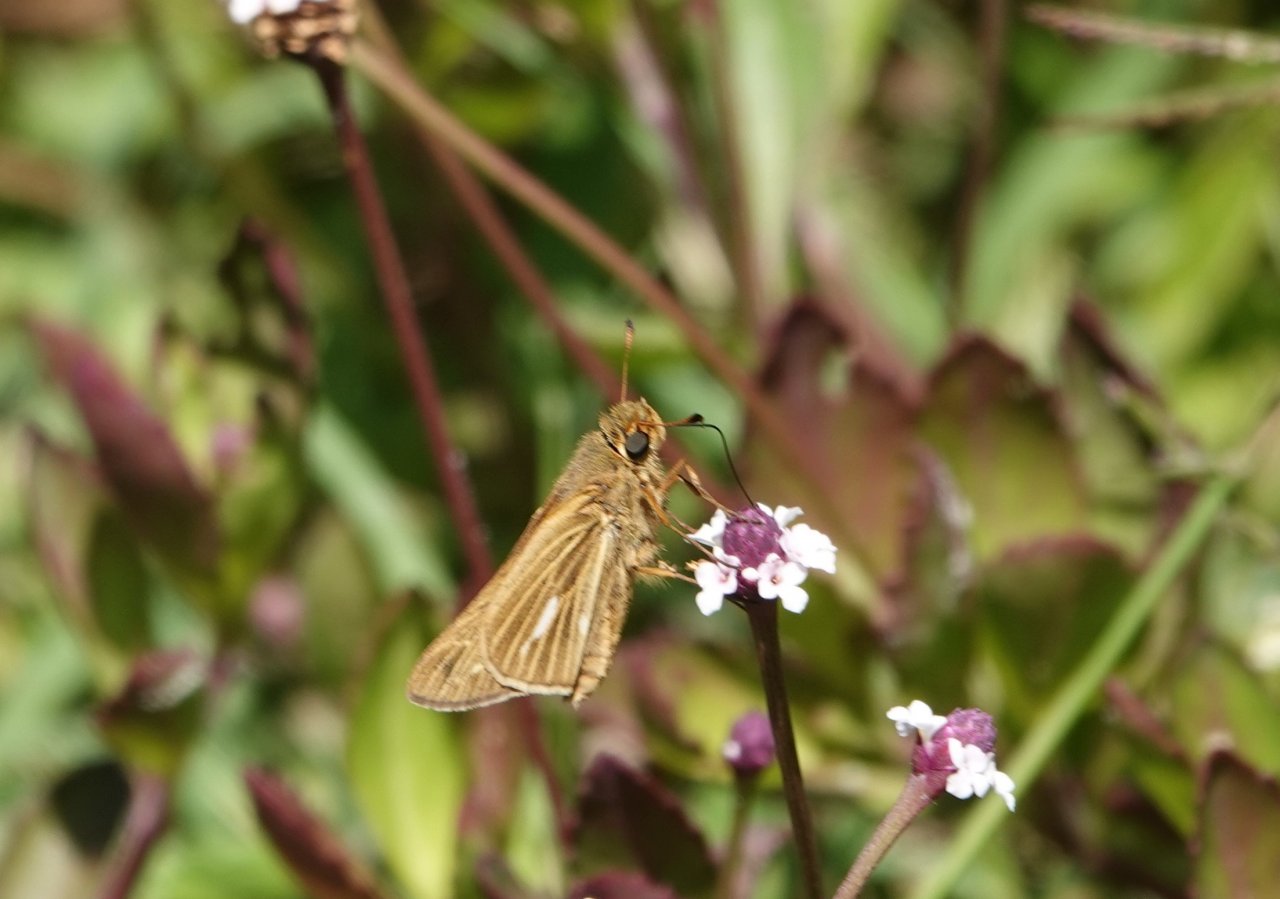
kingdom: Animalia
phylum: Arthropoda
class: Insecta
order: Lepidoptera
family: Hesperiidae
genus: Panoquina
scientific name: Panoquina panoquin
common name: Salt Marsh Skipper
